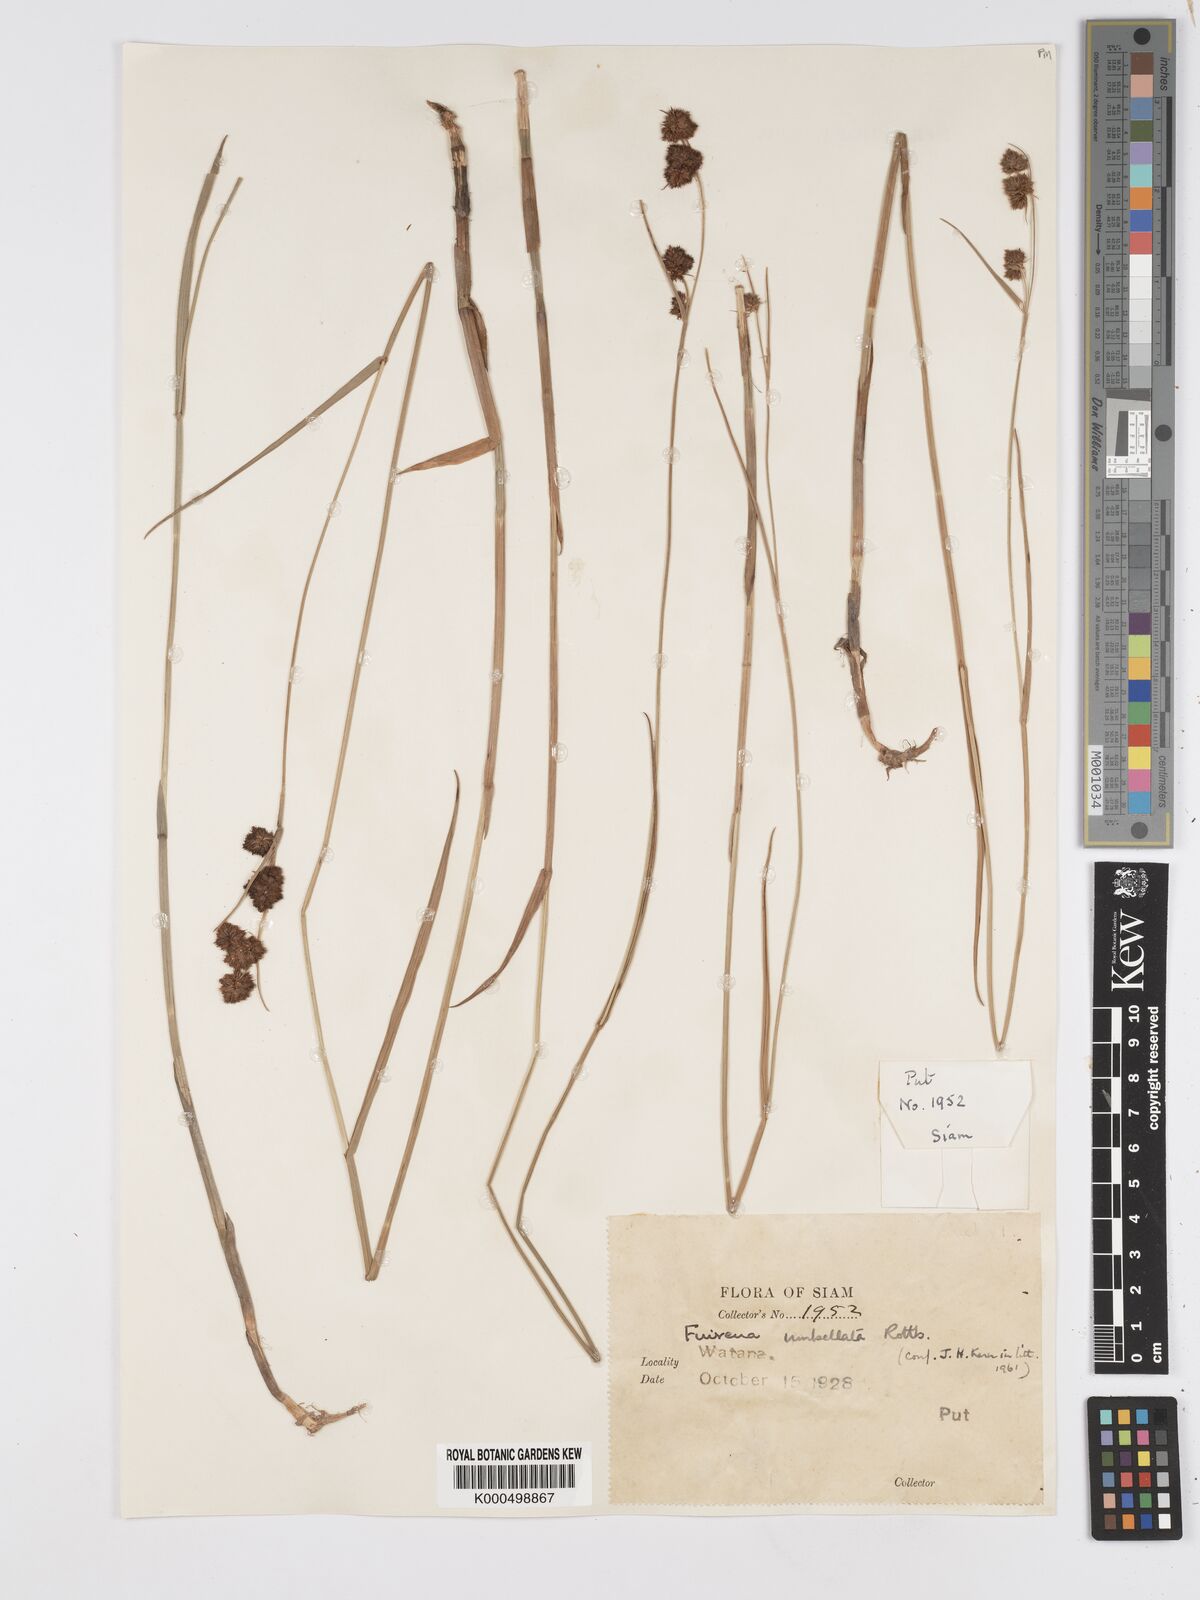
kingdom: Plantae
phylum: Tracheophyta
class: Liliopsida
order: Poales
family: Cyperaceae
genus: Fuirena
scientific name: Fuirena umbellata
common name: Yefen
